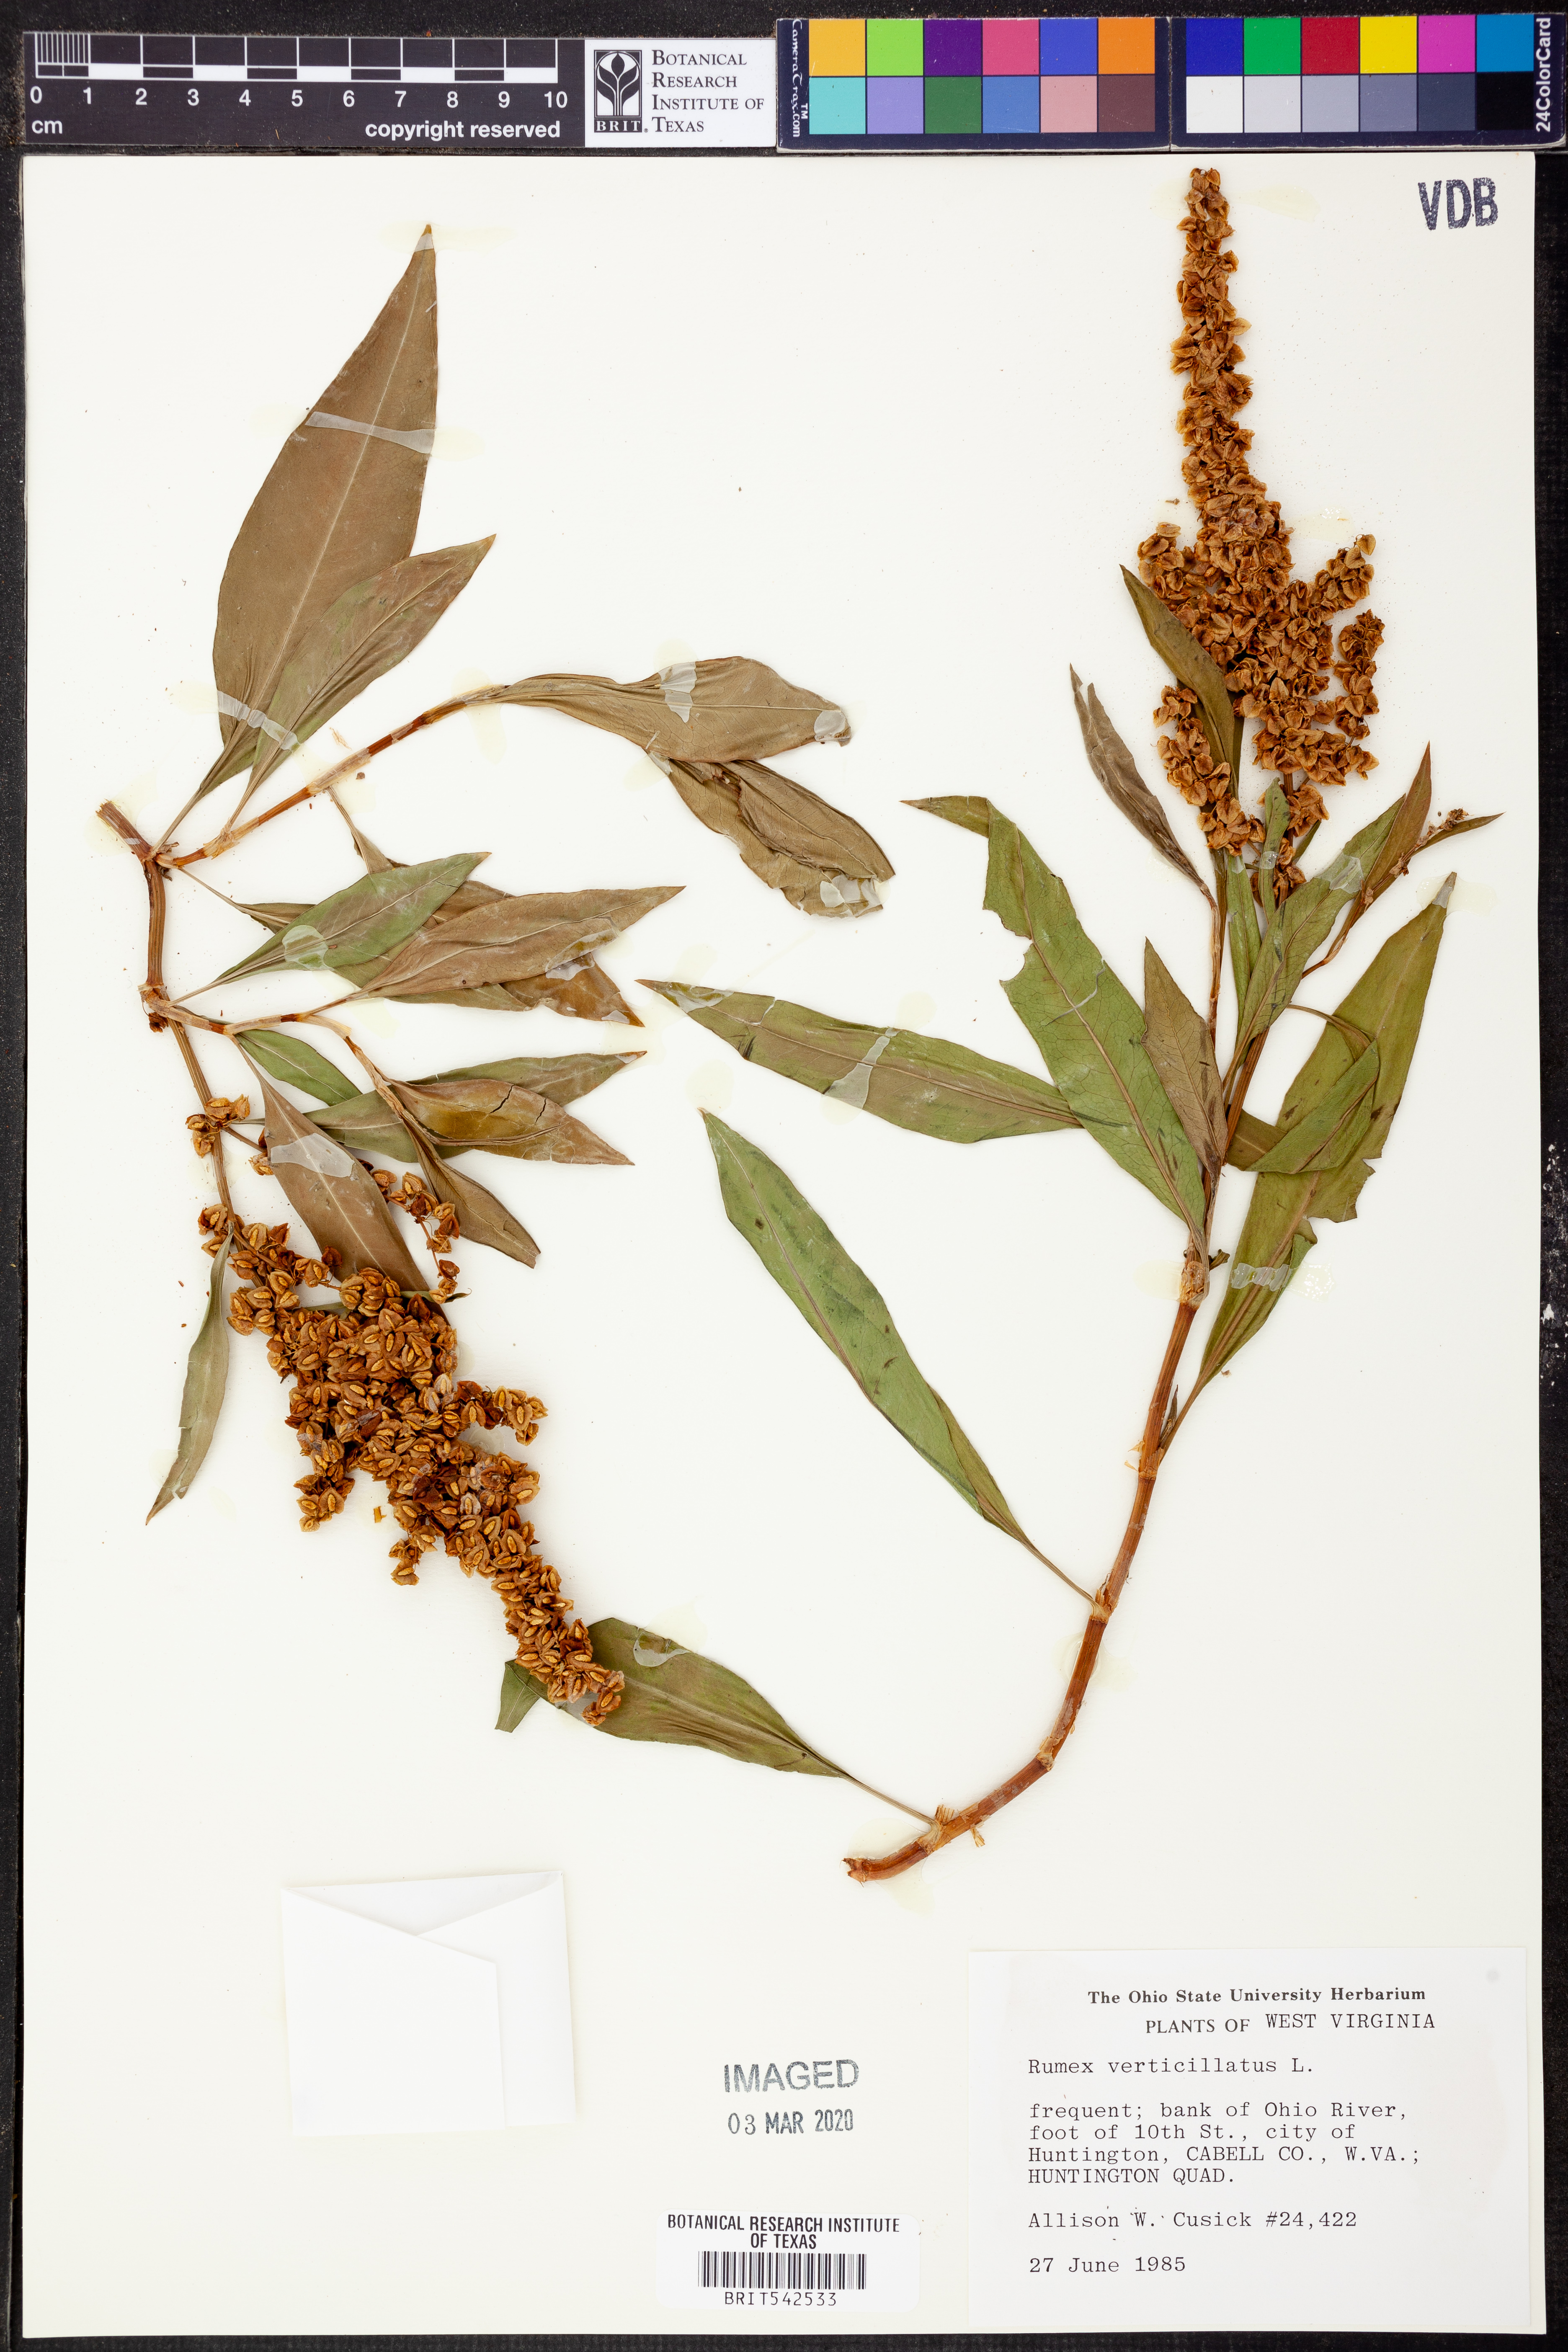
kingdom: Plantae
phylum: Tracheophyta
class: Magnoliopsida
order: Caryophyllales
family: Polygonaceae
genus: Rumex
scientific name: Rumex verticillatus
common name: Swamp dock
